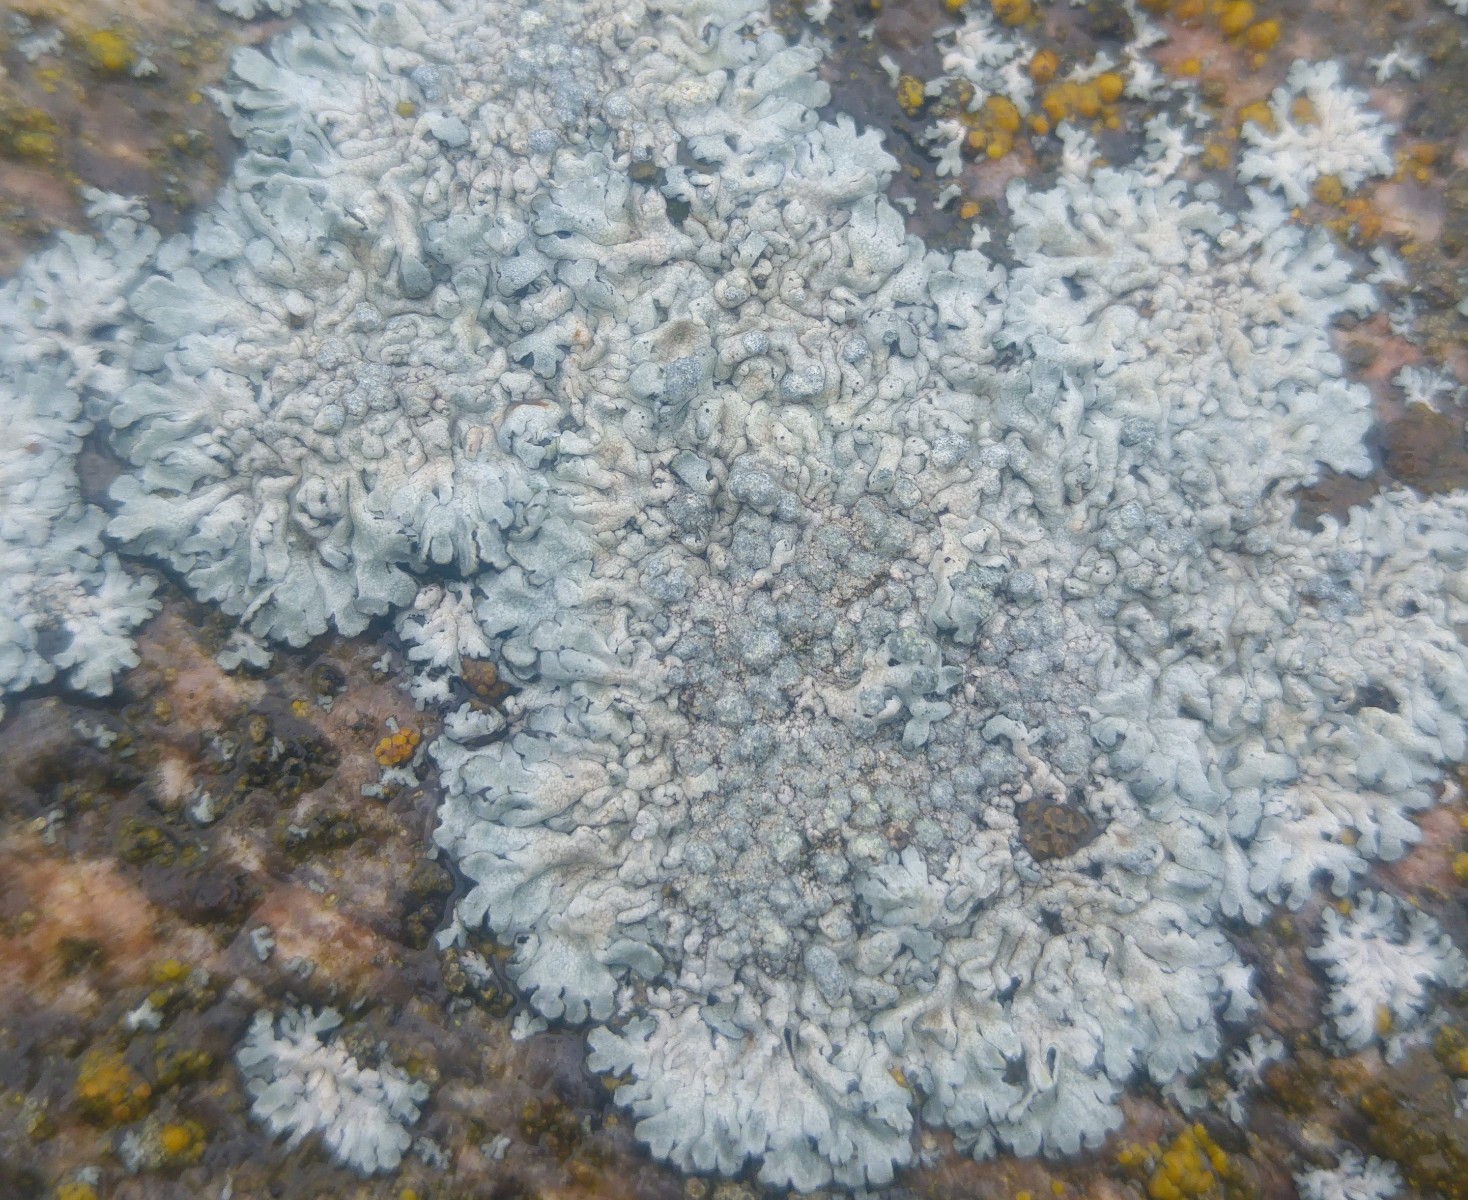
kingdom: Fungi
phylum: Ascomycota
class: Lecanoromycetes
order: Caliciales
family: Physciaceae
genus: Physcia
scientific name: Physcia caesia
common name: blågrå rosetlav
